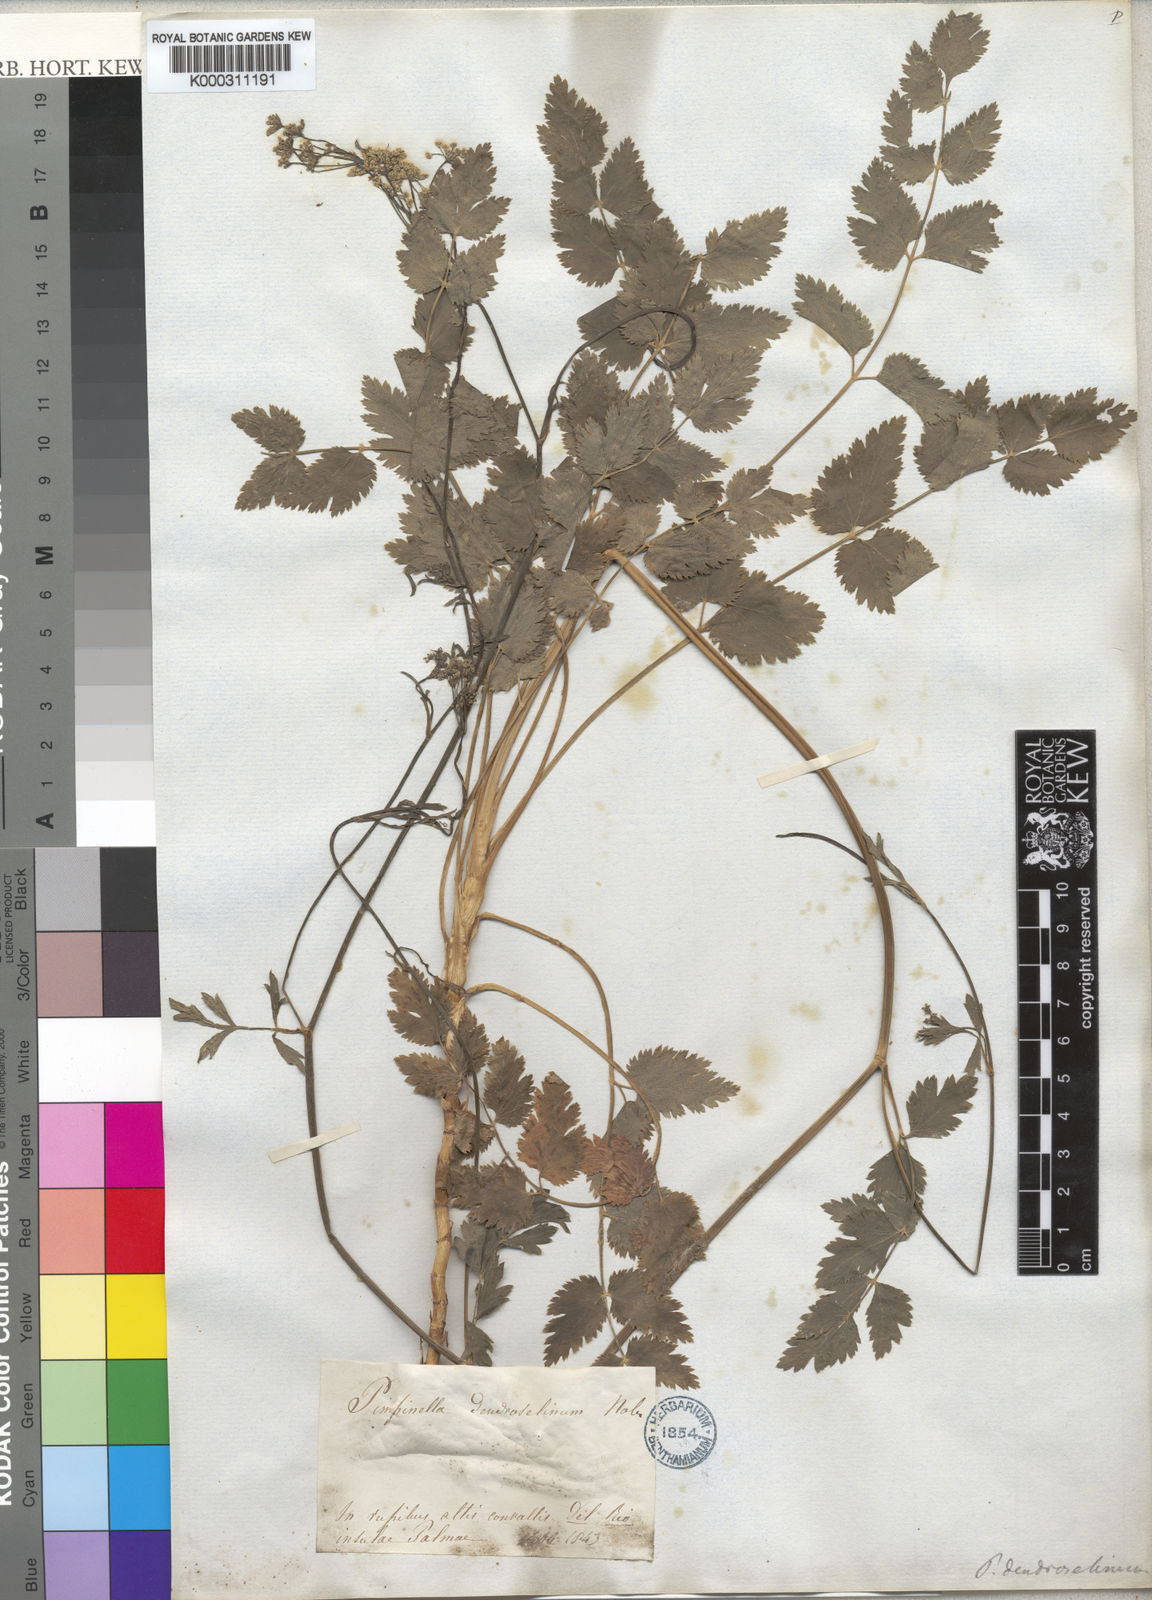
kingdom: Plantae
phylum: Tracheophyta
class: Magnoliopsida
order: Apiales
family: Apiaceae
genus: Pimpinella
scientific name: Pimpinella
